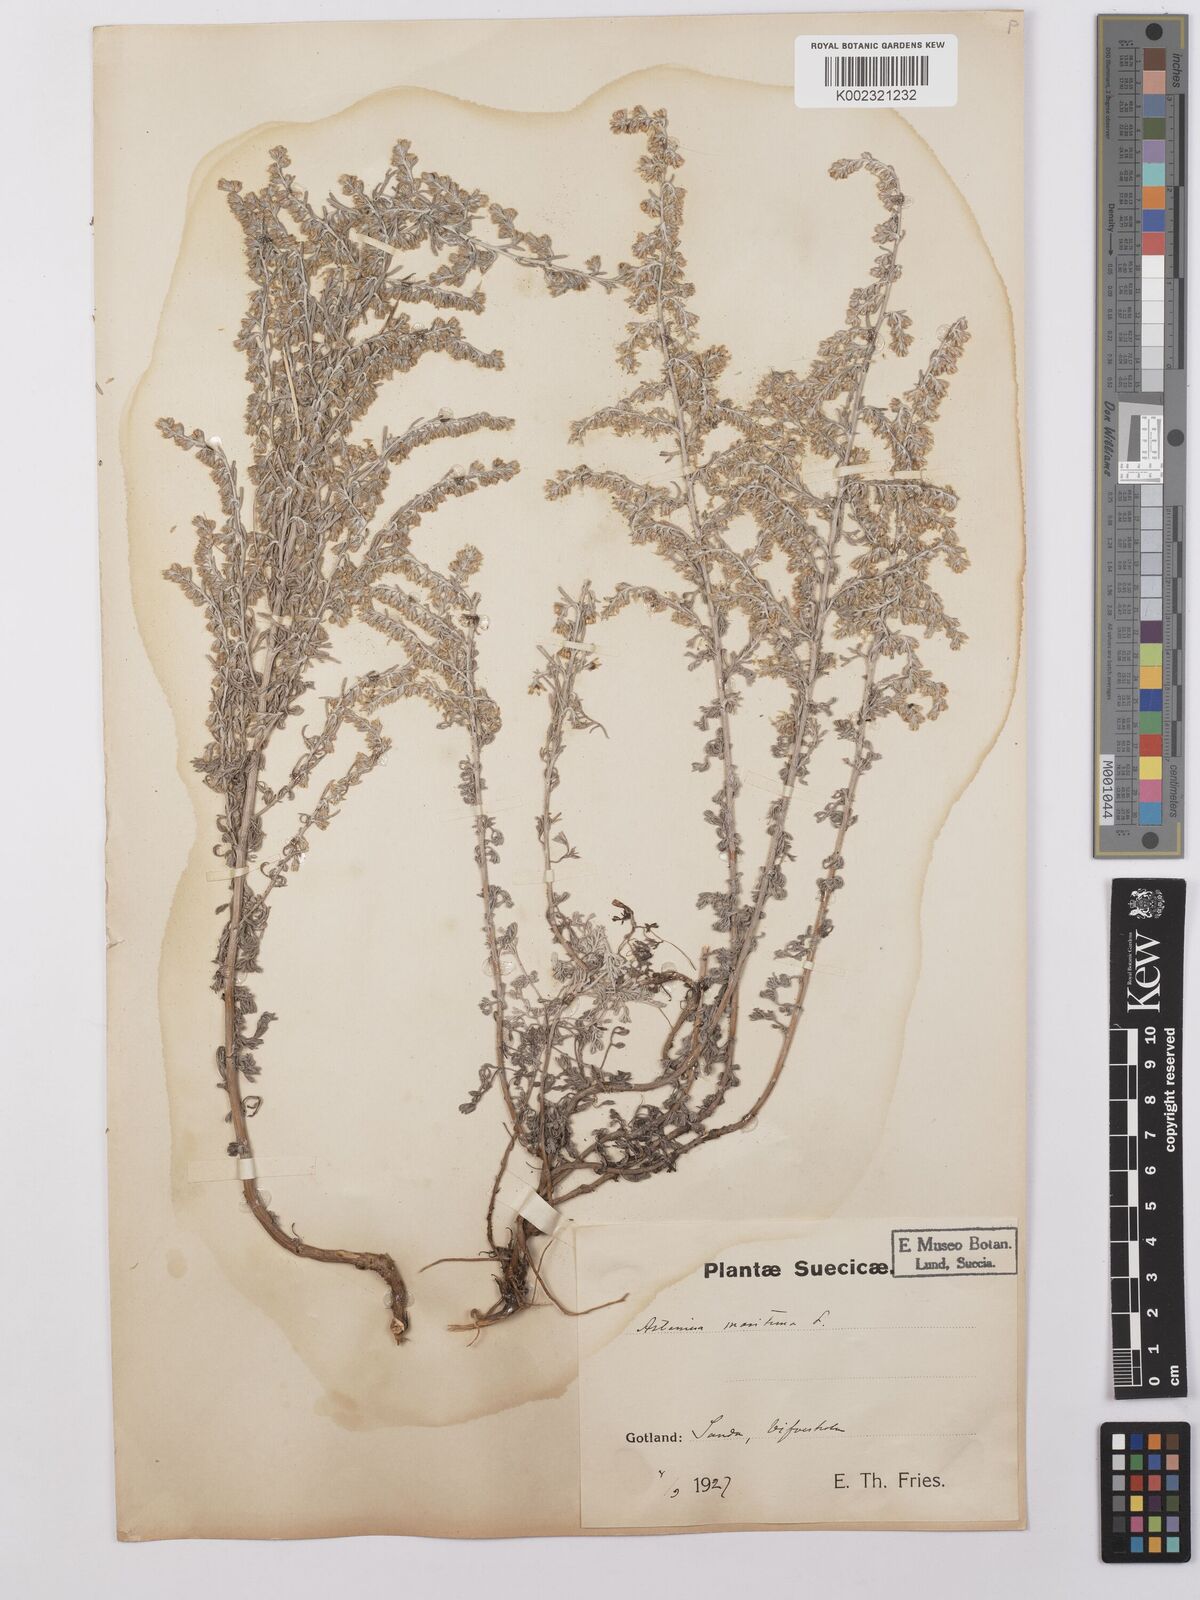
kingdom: Plantae
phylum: Tracheophyta
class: Magnoliopsida
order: Asterales
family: Asteraceae
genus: Artemisia
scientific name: Artemisia maritima
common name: Wormseed
